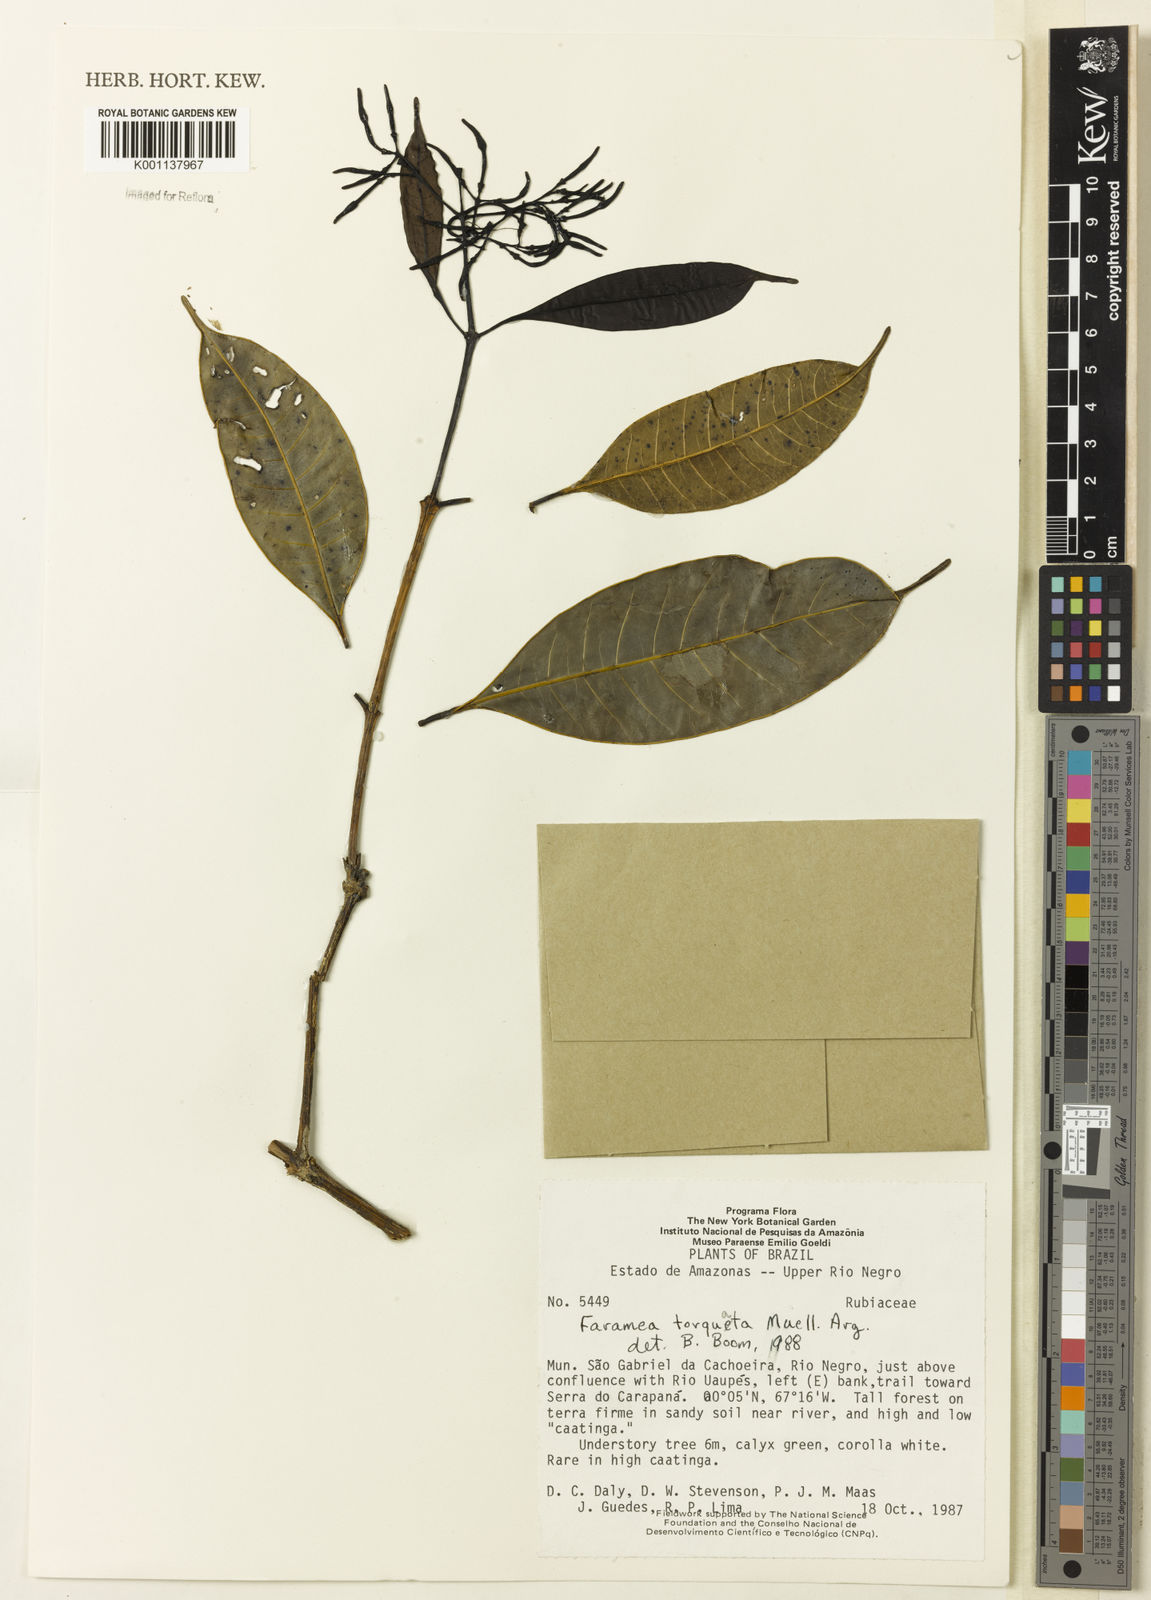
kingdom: Plantae
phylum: Tracheophyta
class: Magnoliopsida
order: Gentianales
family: Rubiaceae
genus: Faramea
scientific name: Faramea
